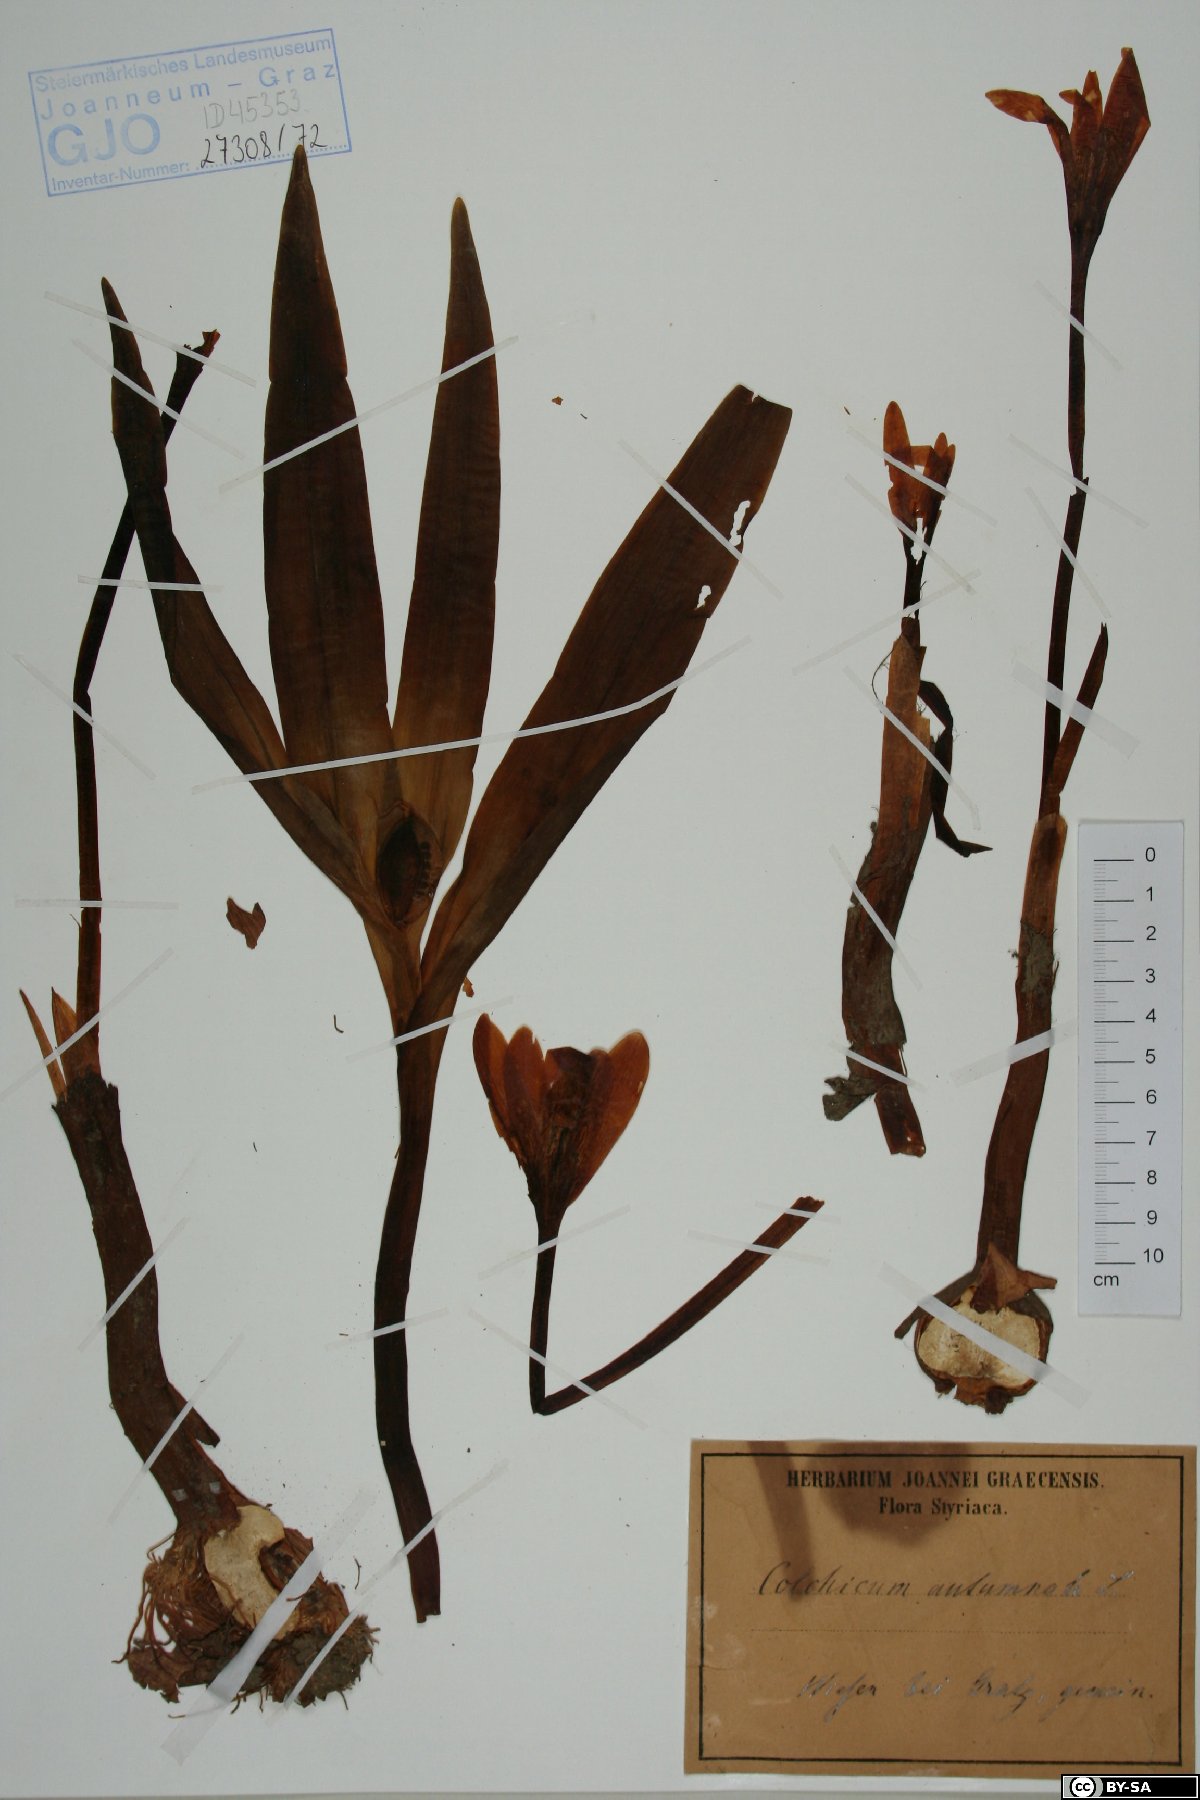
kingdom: Plantae
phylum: Tracheophyta
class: Liliopsida
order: Liliales
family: Colchicaceae
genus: Colchicum
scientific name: Colchicum autumnale
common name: Autumn crocus
